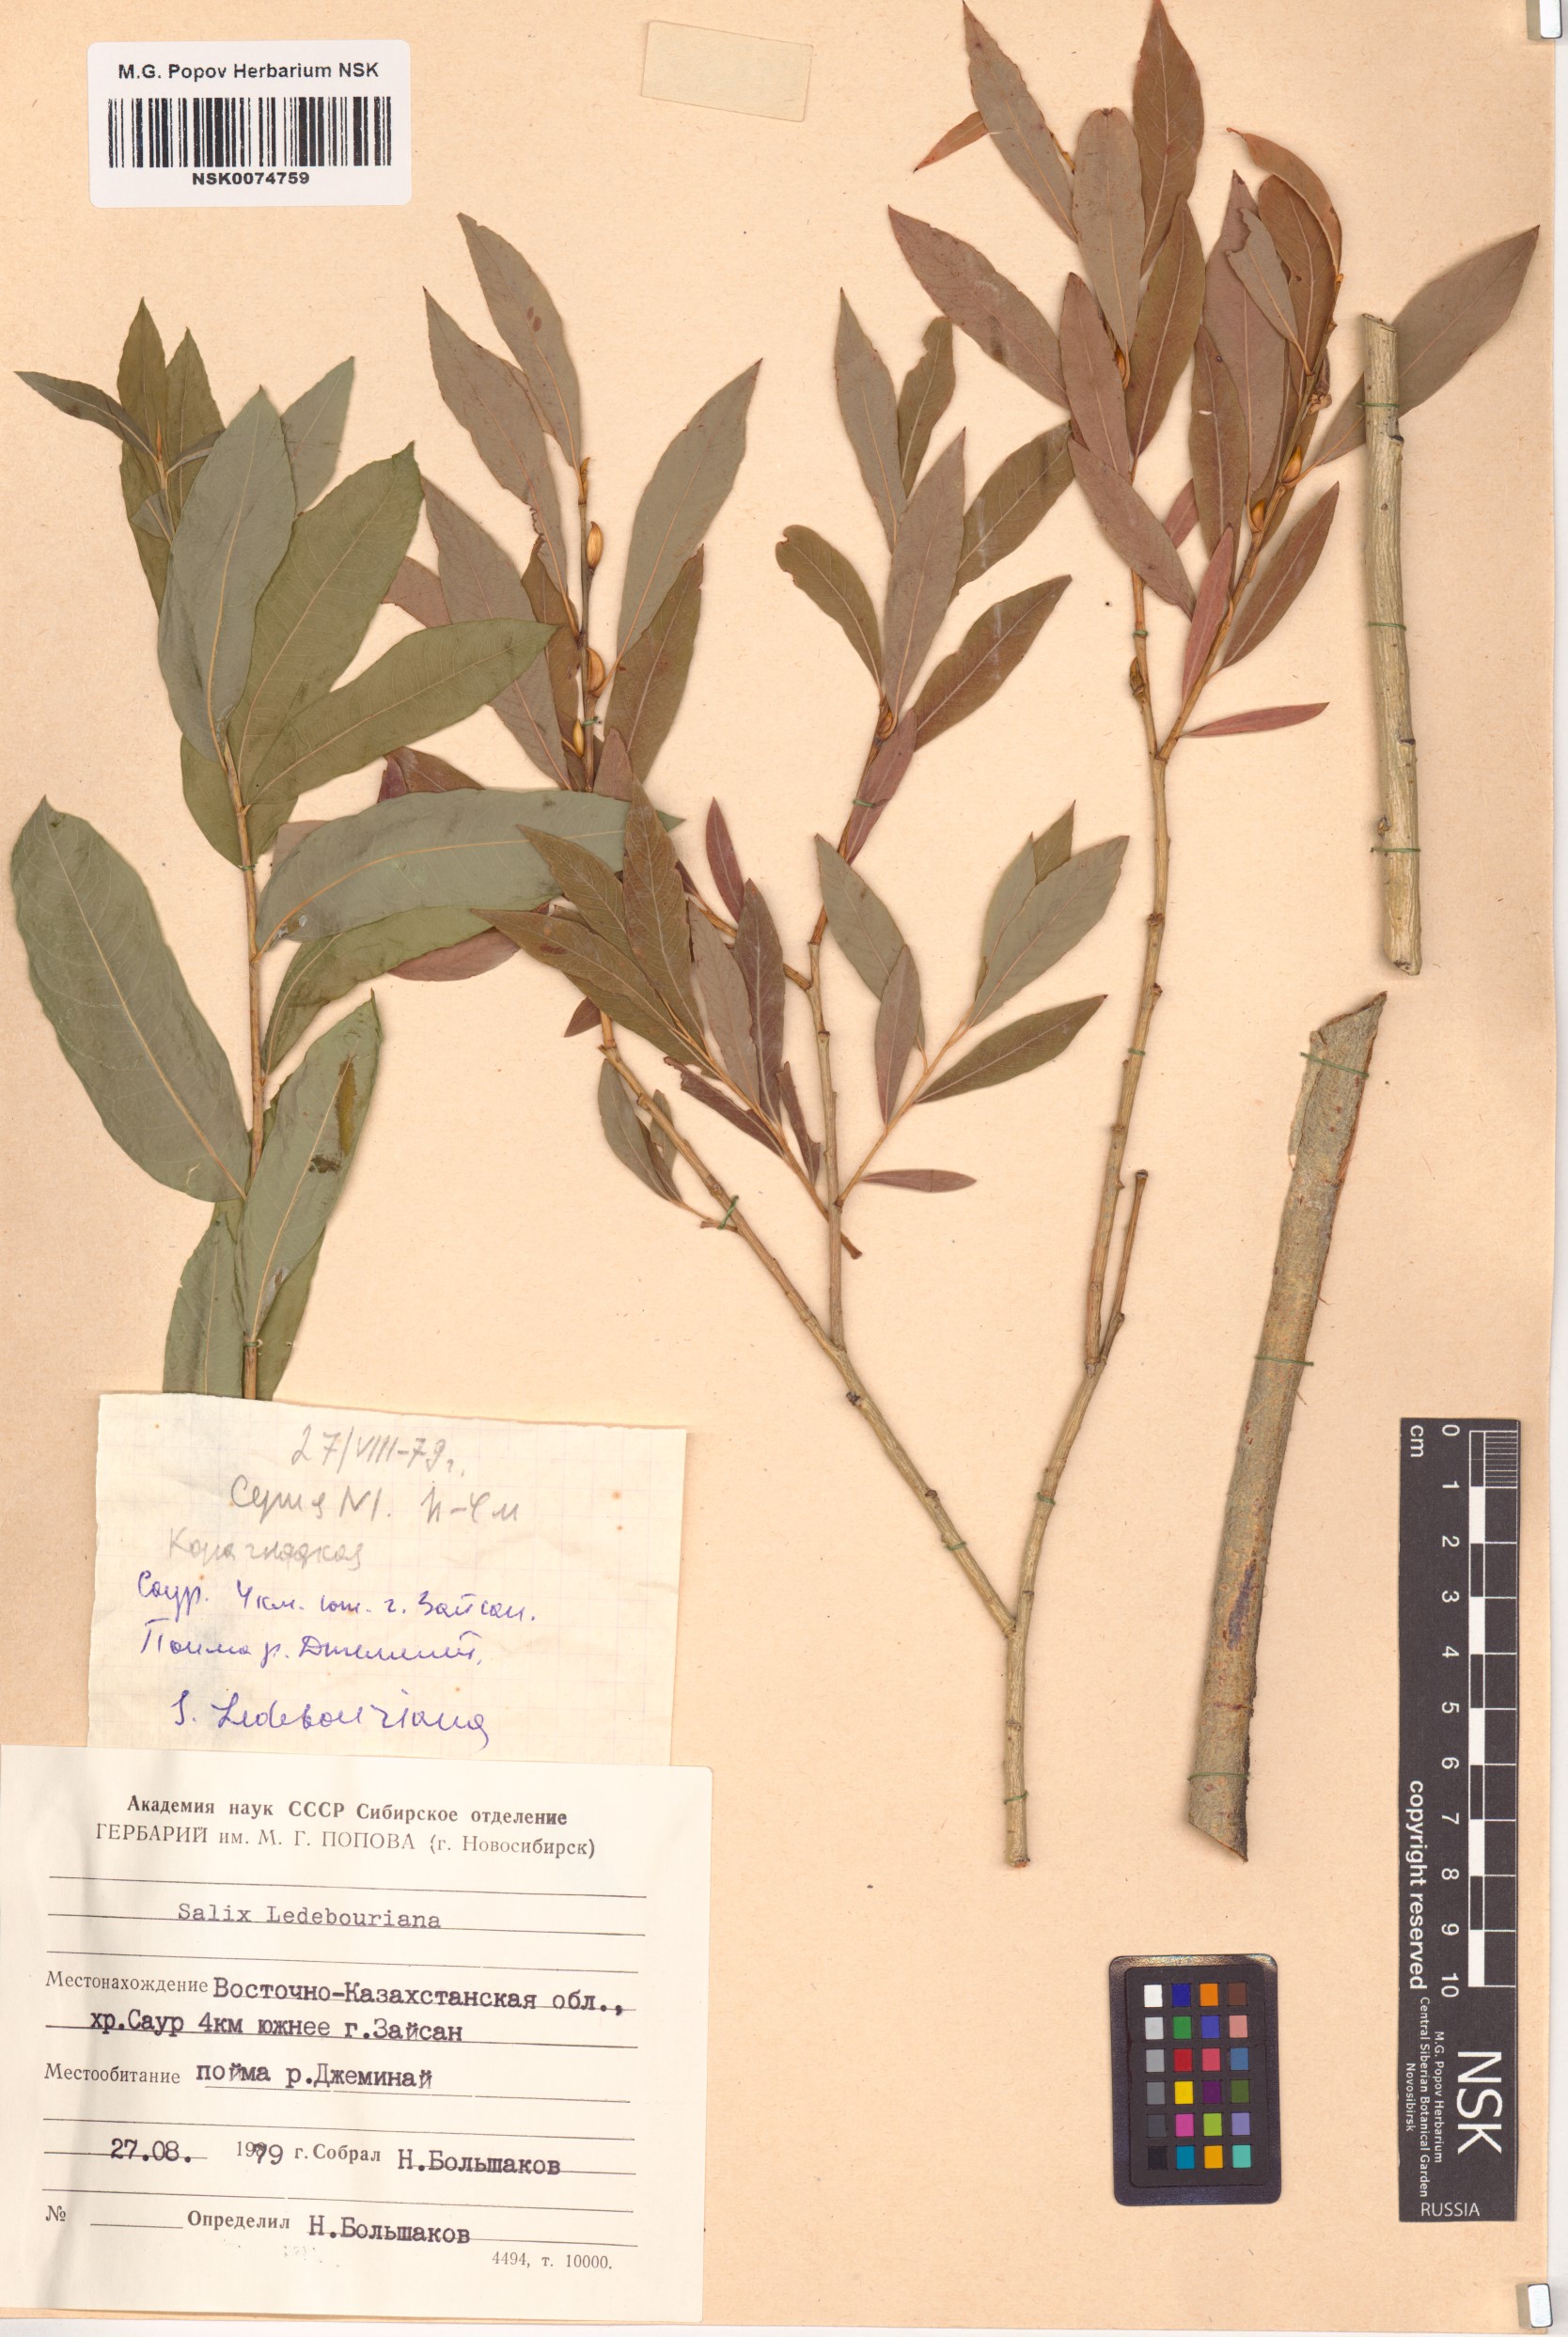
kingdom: Plantae
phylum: Tracheophyta
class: Magnoliopsida
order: Malpighiales
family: Salicaceae
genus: Salix
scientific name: Salix ledebouriana
